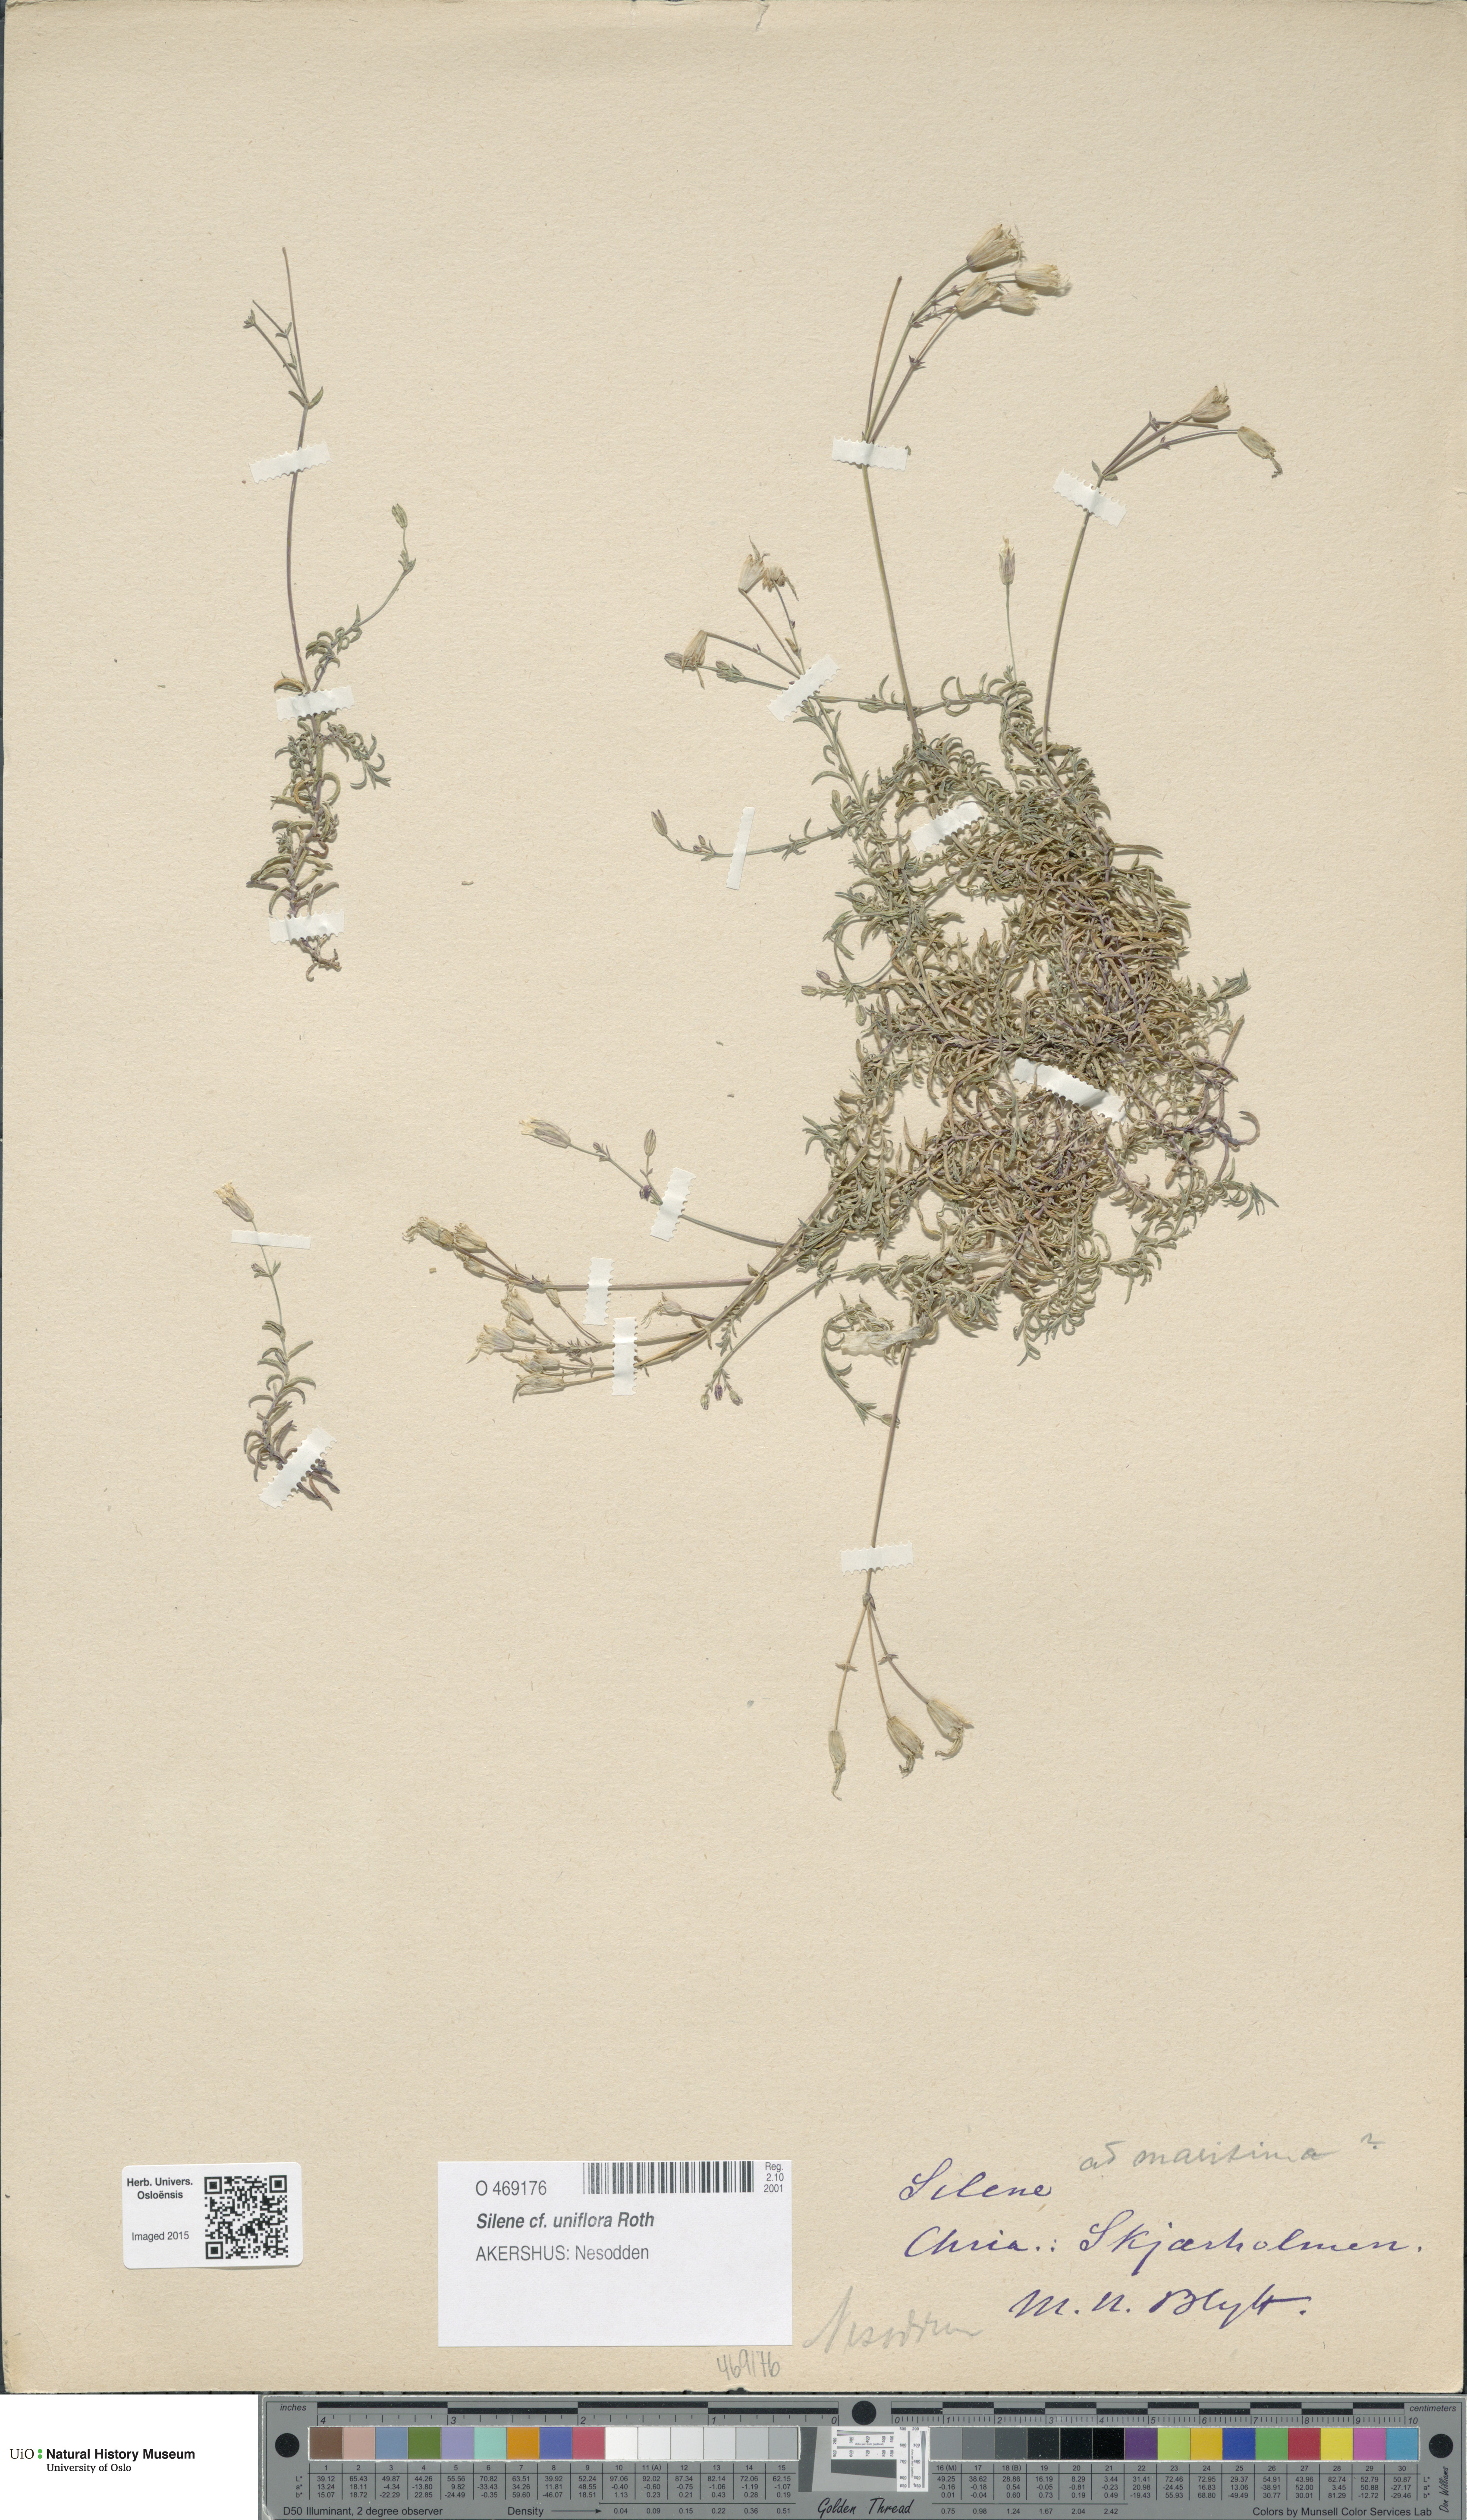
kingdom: Plantae
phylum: Tracheophyta
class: Magnoliopsida
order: Caryophyllales
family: Caryophyllaceae
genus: Silene
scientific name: Silene uniflora
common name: Sea campion
